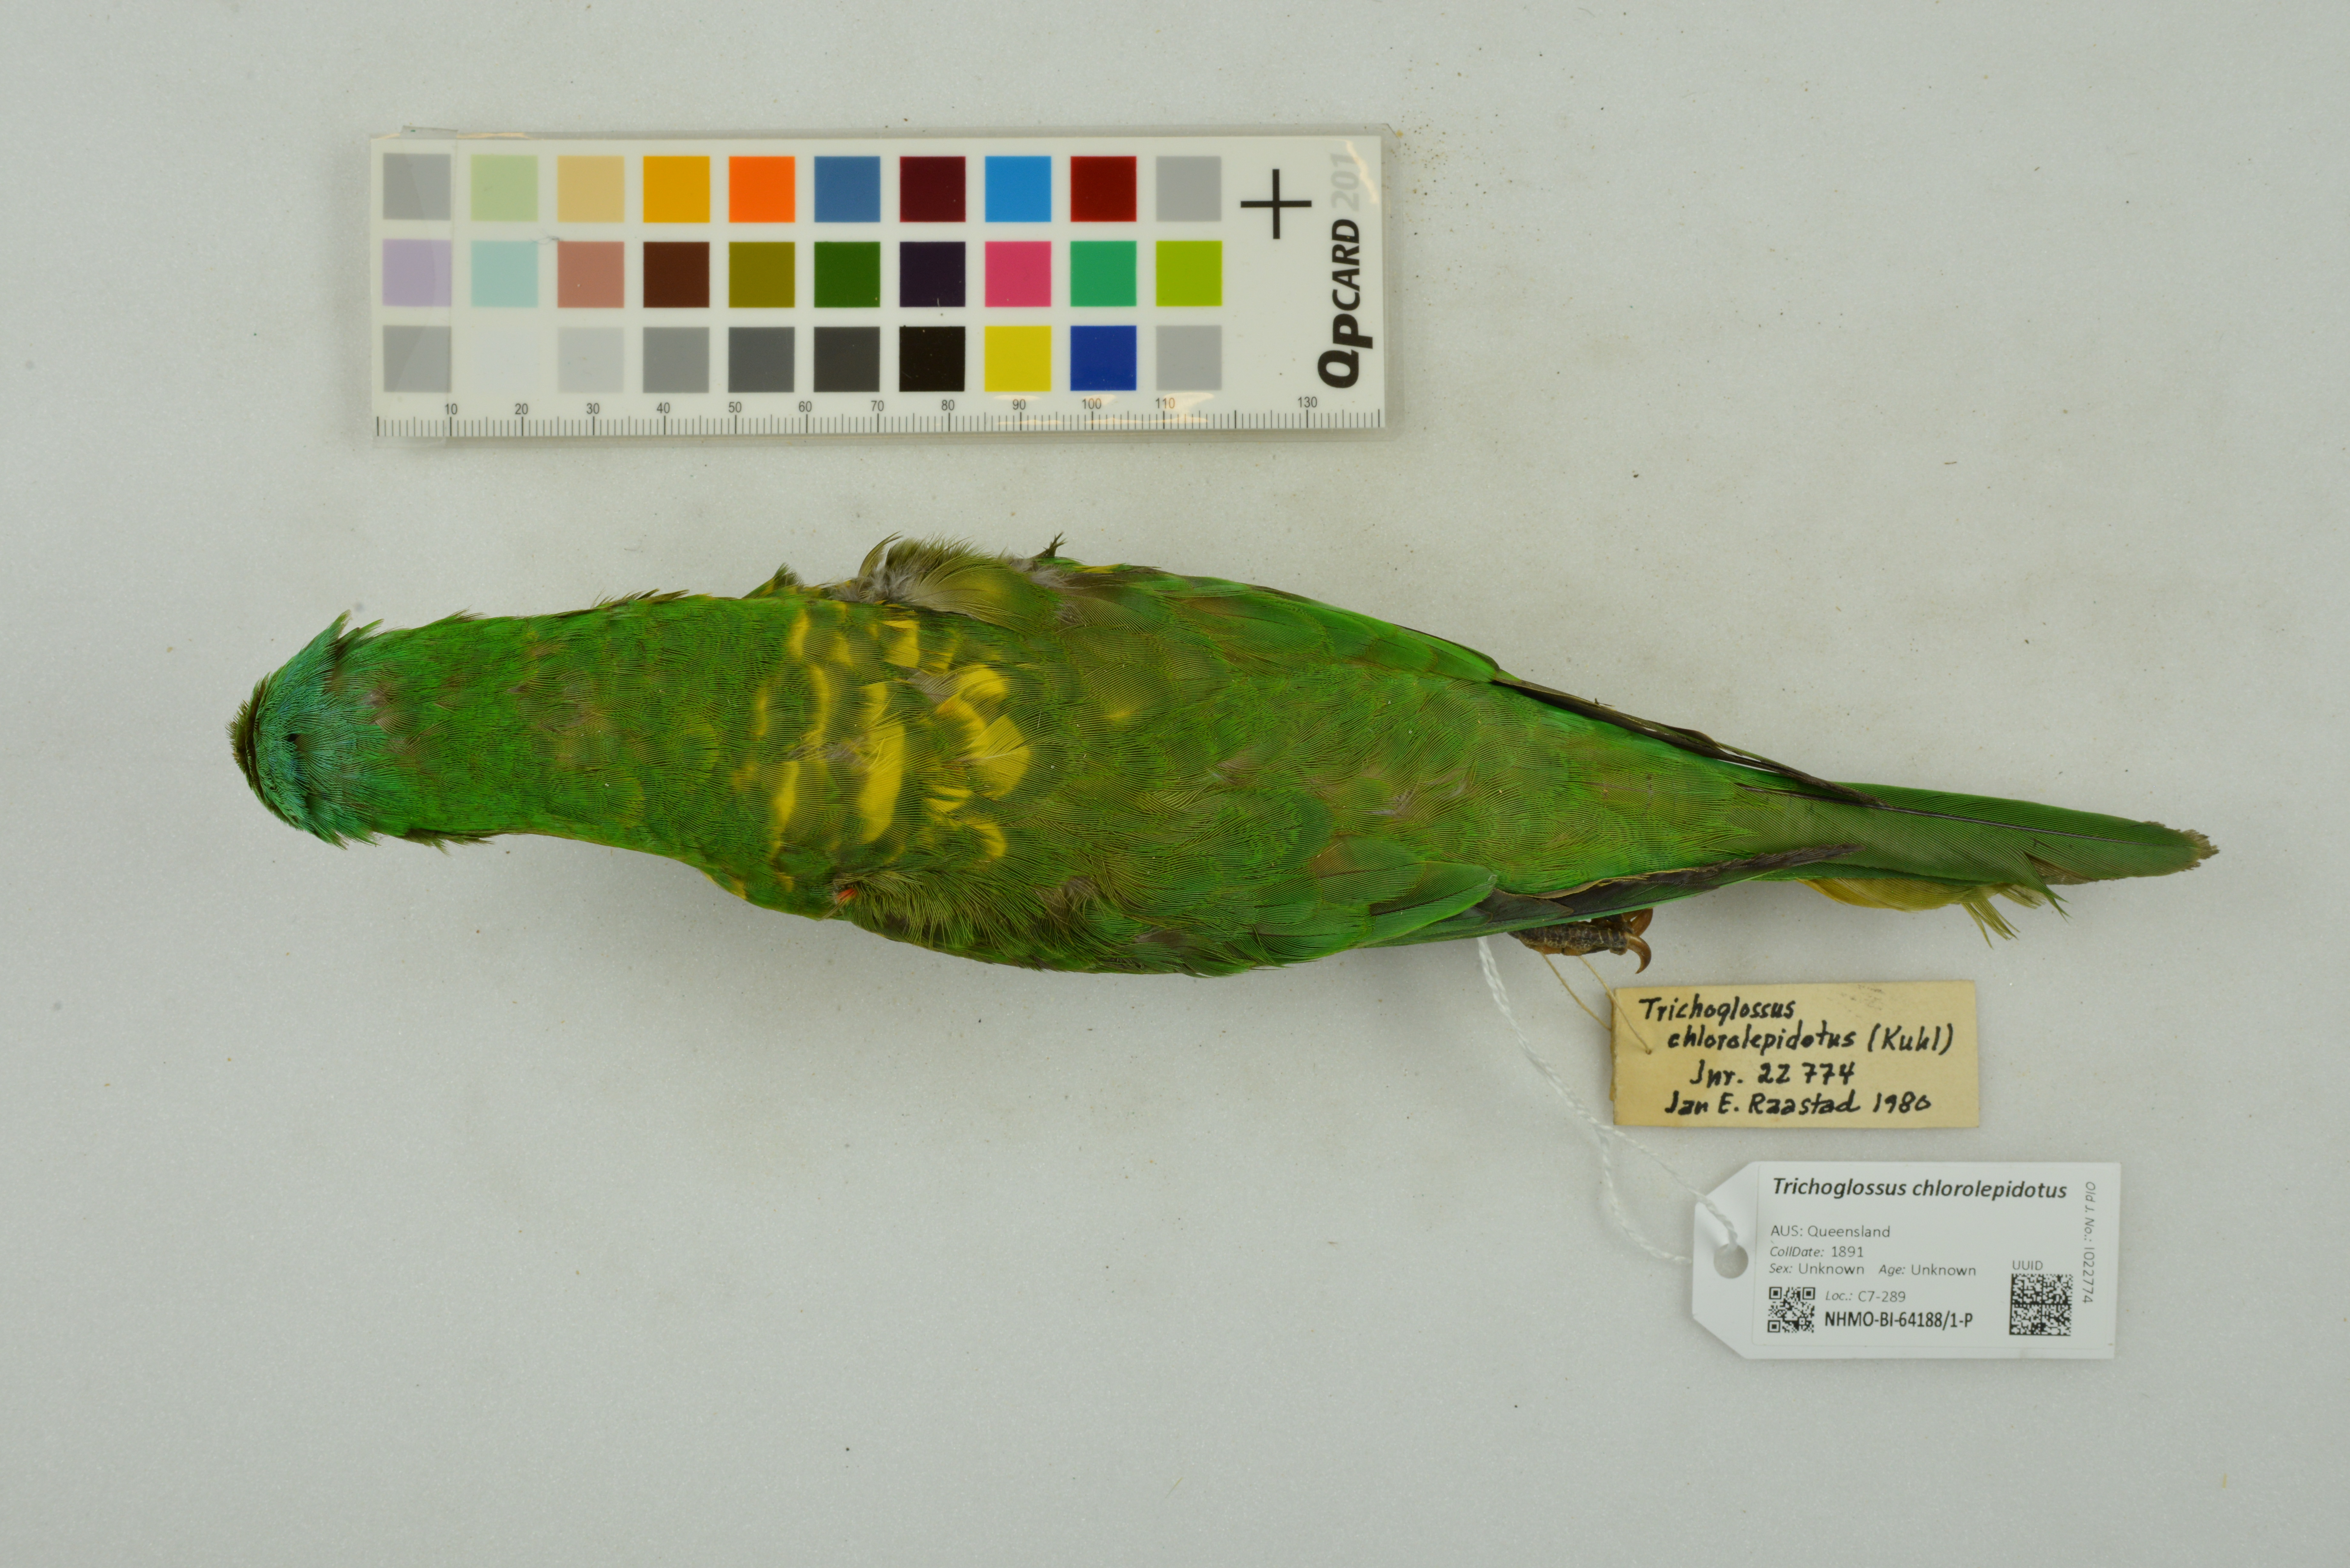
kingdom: Animalia
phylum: Chordata
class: Aves
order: Psittaciformes
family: Psittacidae
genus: Trichoglossus
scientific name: Trichoglossus chlorolepidotus
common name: Scaly-breasted lorikeet
